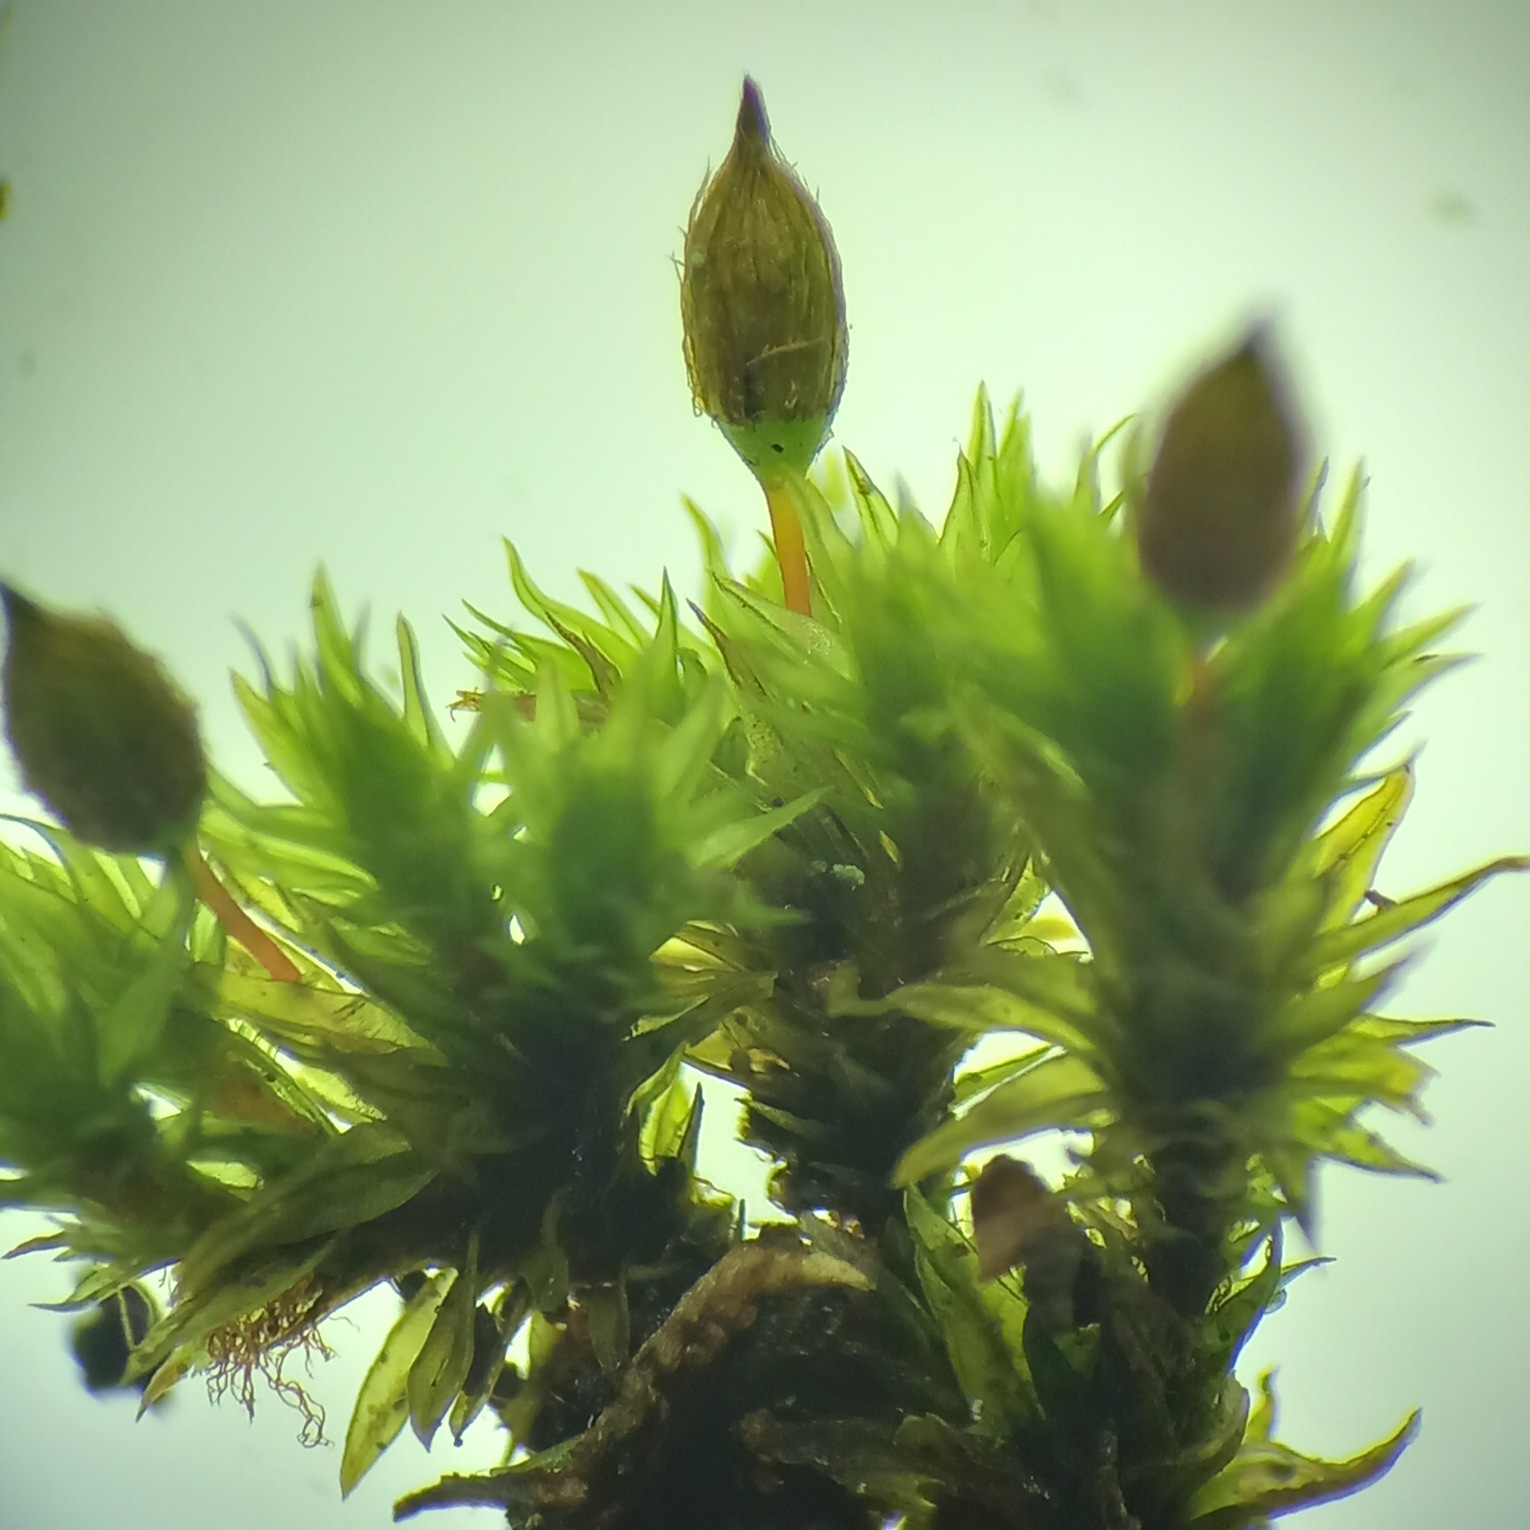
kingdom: Plantae
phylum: Bryophyta
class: Bryopsida
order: Orthotrichales
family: Orthotrichaceae
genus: Orthotrichum
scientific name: Orthotrichum anomalum
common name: Mørk furehætte
